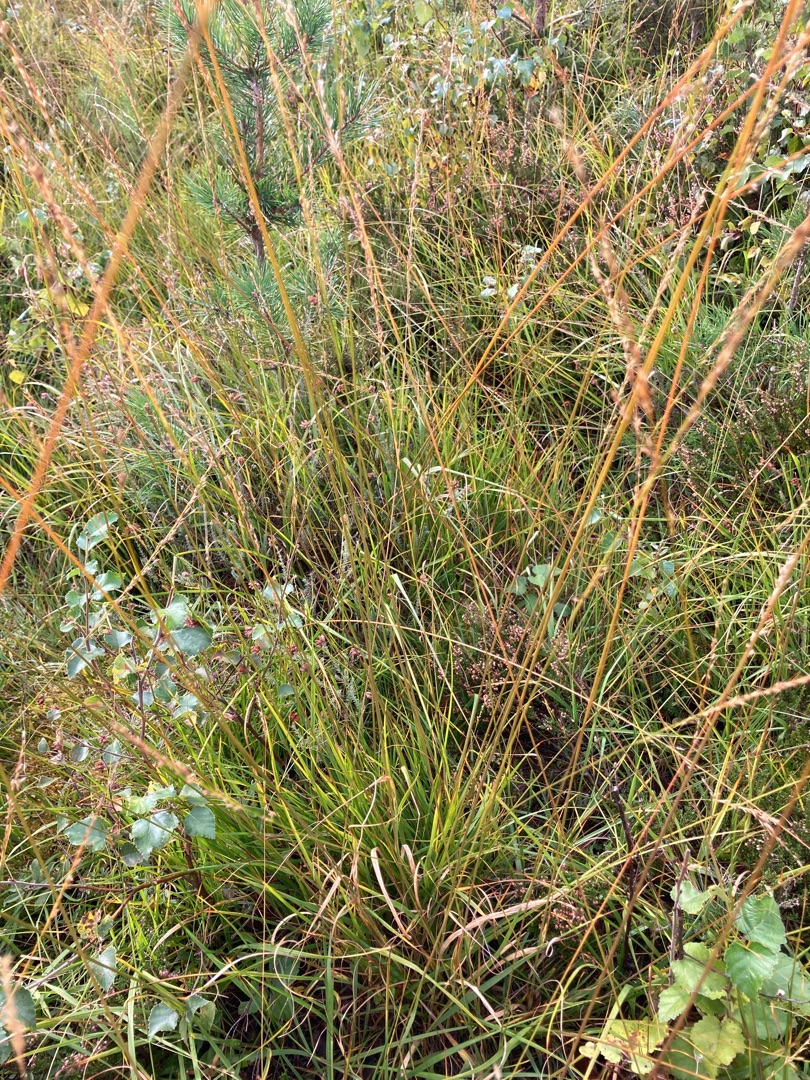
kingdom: Plantae
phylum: Tracheophyta
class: Liliopsida
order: Poales
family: Poaceae
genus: Molinia
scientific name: Molinia caerulea
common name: Blåtop
